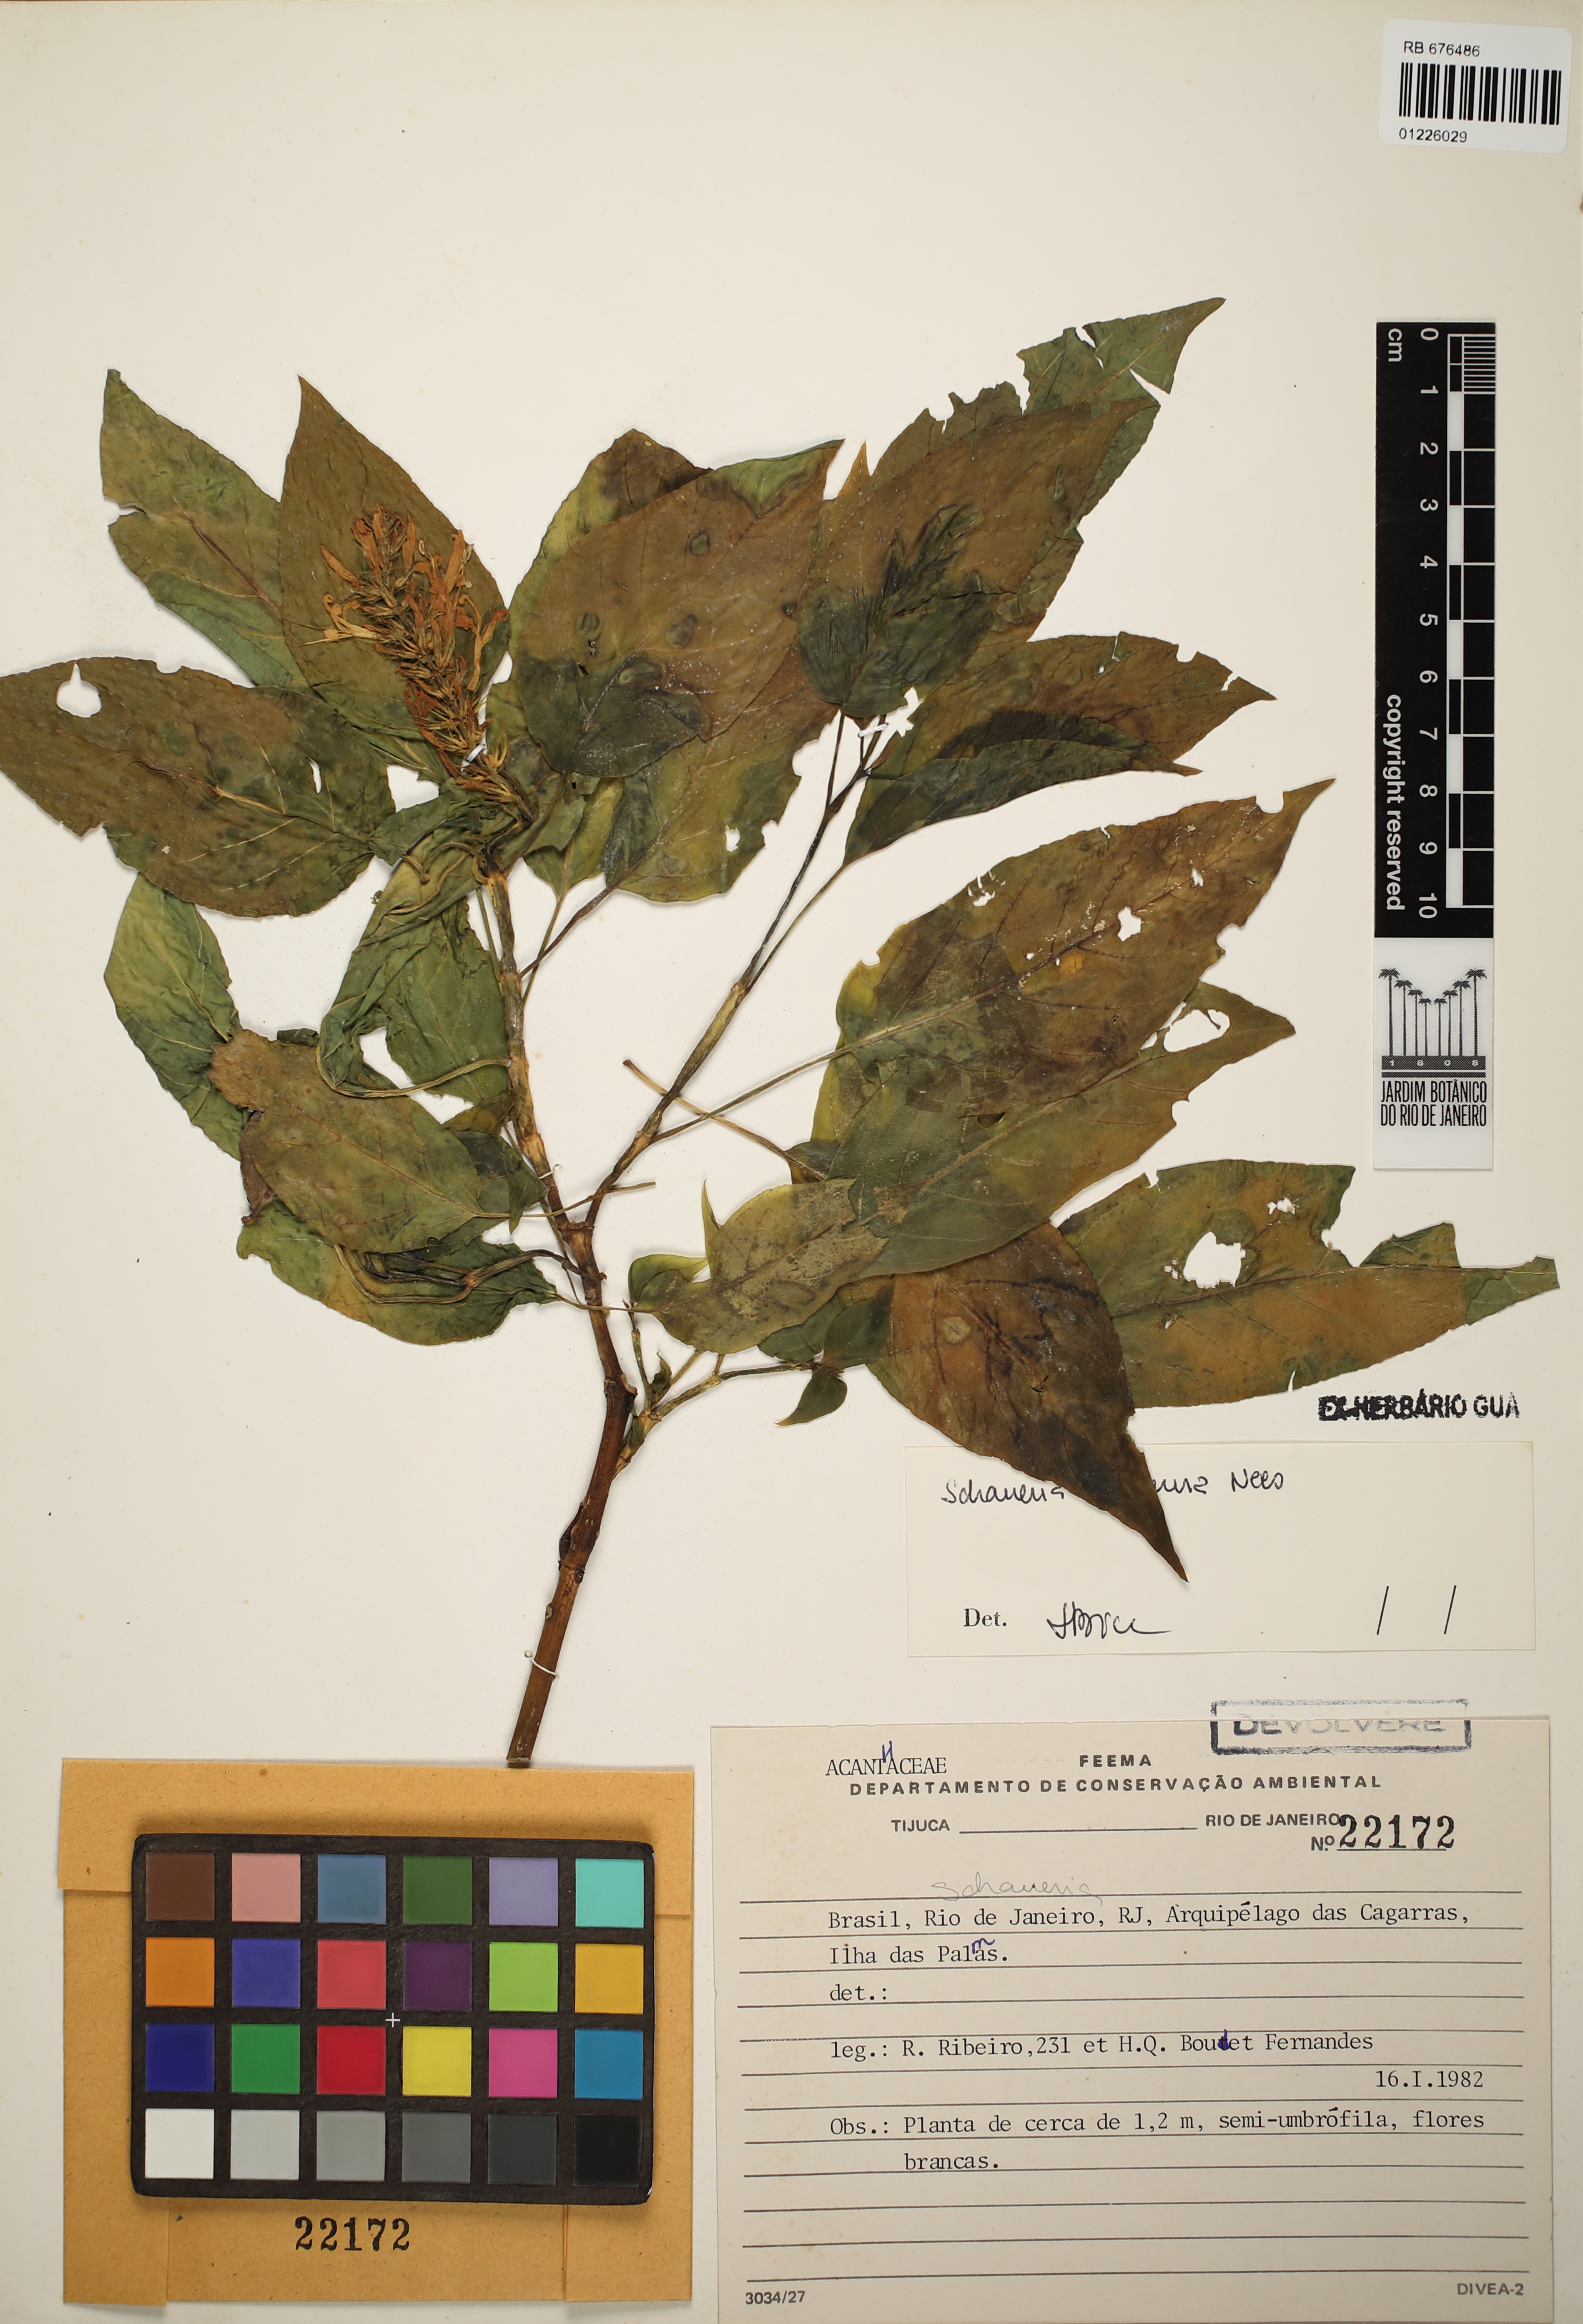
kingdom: Plantae
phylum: Tracheophyta
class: Magnoliopsida
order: Lamiales
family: Acanthaceae
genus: Schaueria
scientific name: Schaueria litoralis
